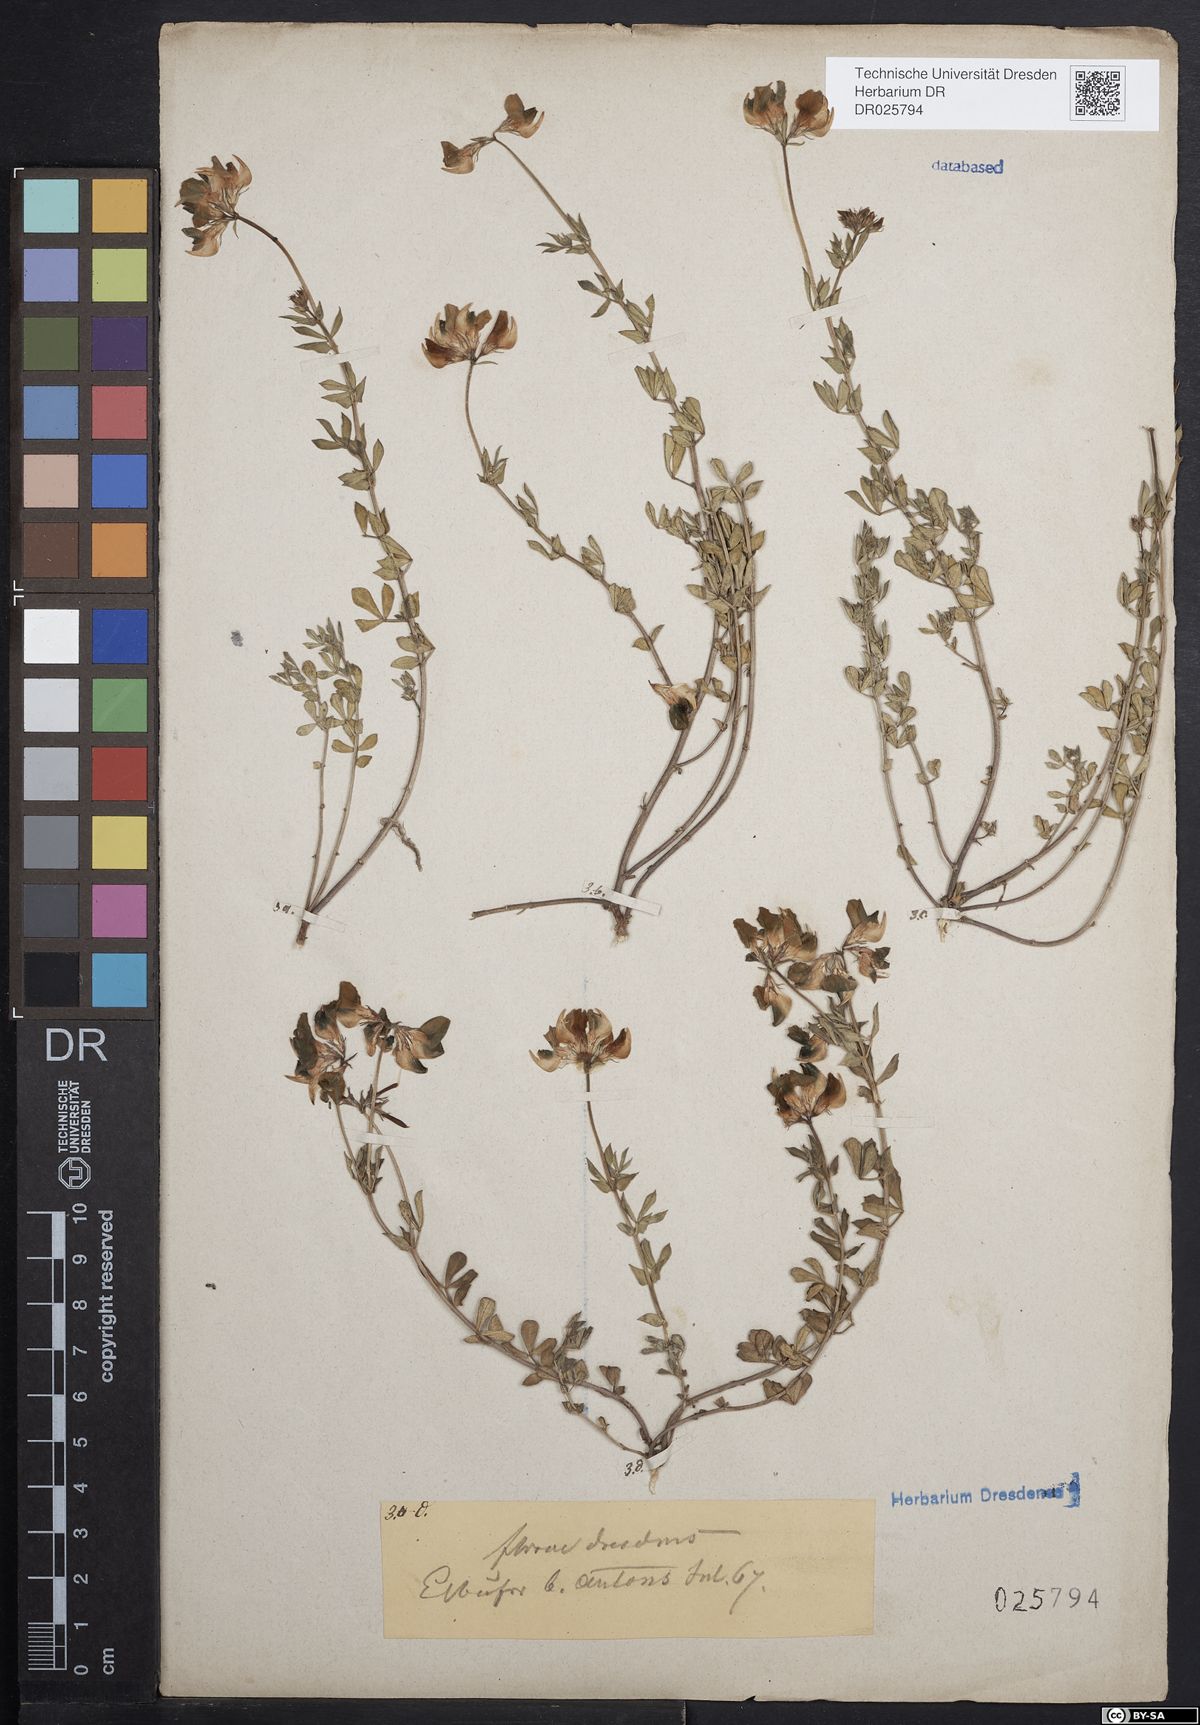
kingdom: Plantae
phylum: Tracheophyta
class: Magnoliopsida
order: Fabales
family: Fabaceae
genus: Lotus
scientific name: Lotus corniculatus
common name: Common bird's-foot-trefoil
